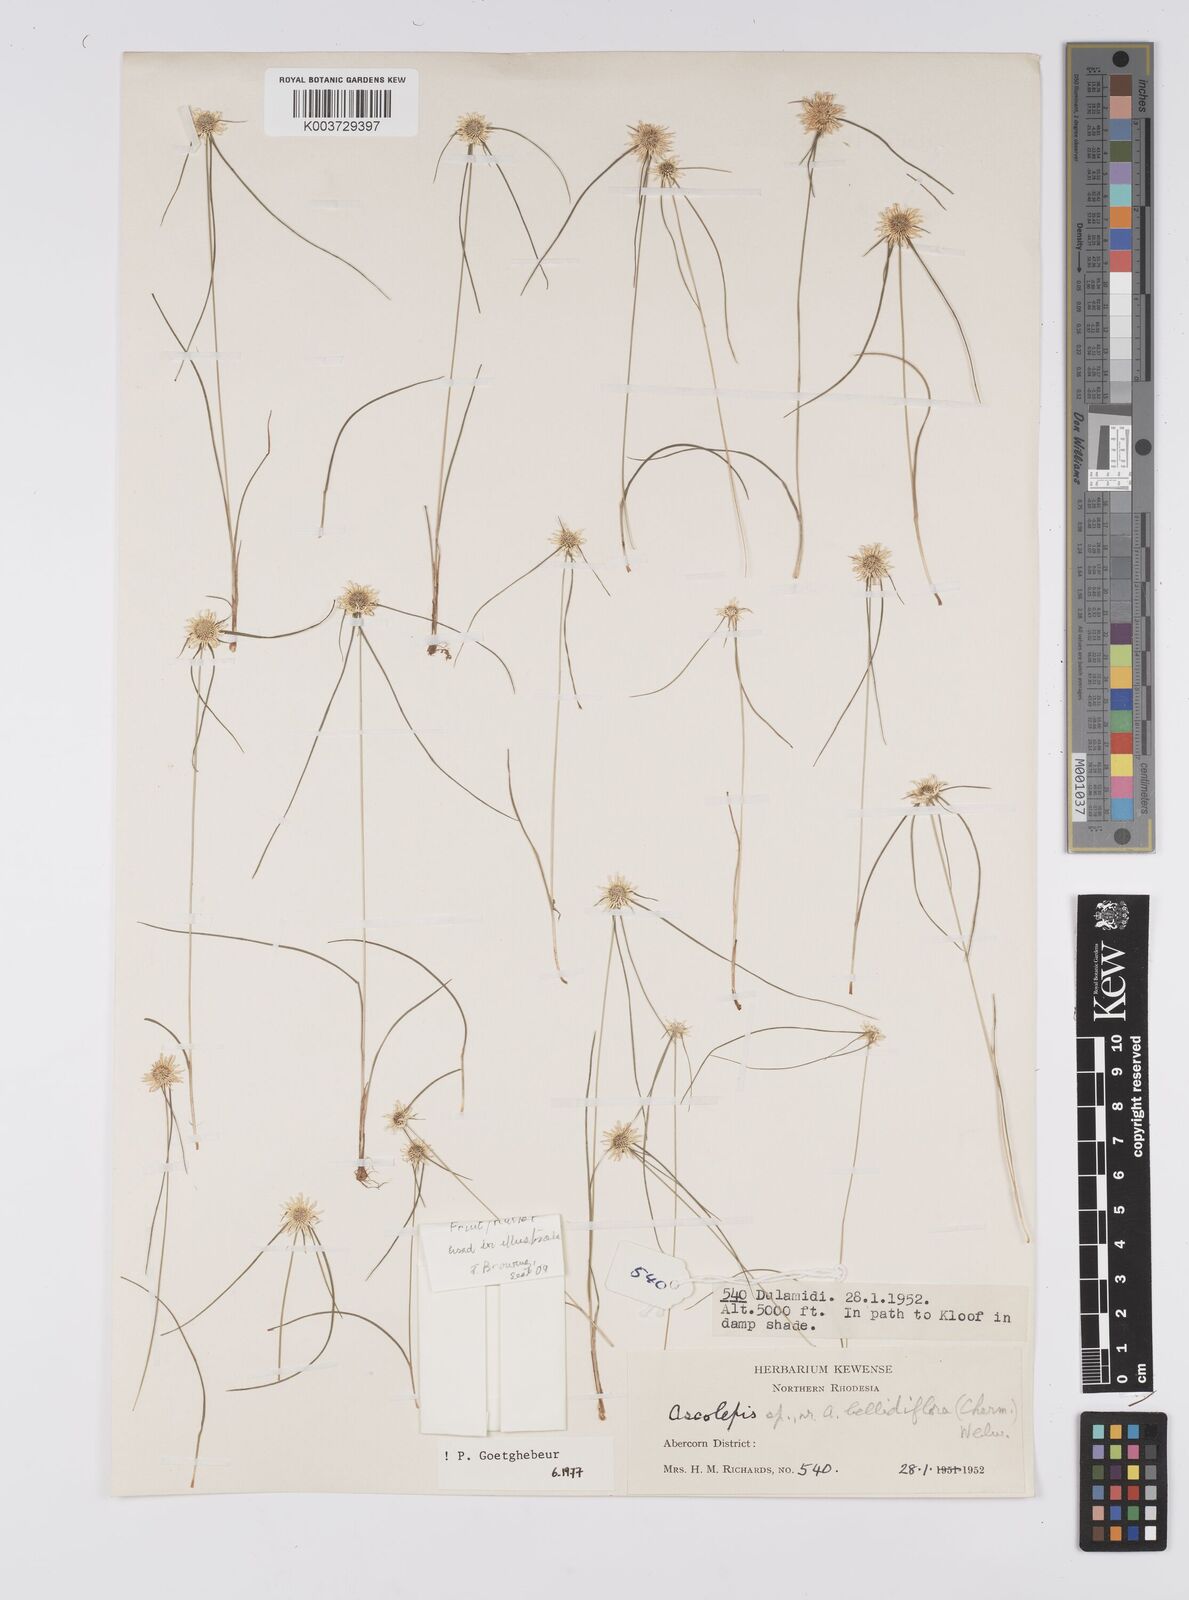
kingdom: Plantae
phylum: Tracheophyta
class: Liliopsida
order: Poales
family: Cyperaceae
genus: Cyperus
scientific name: Cyperus proteus
